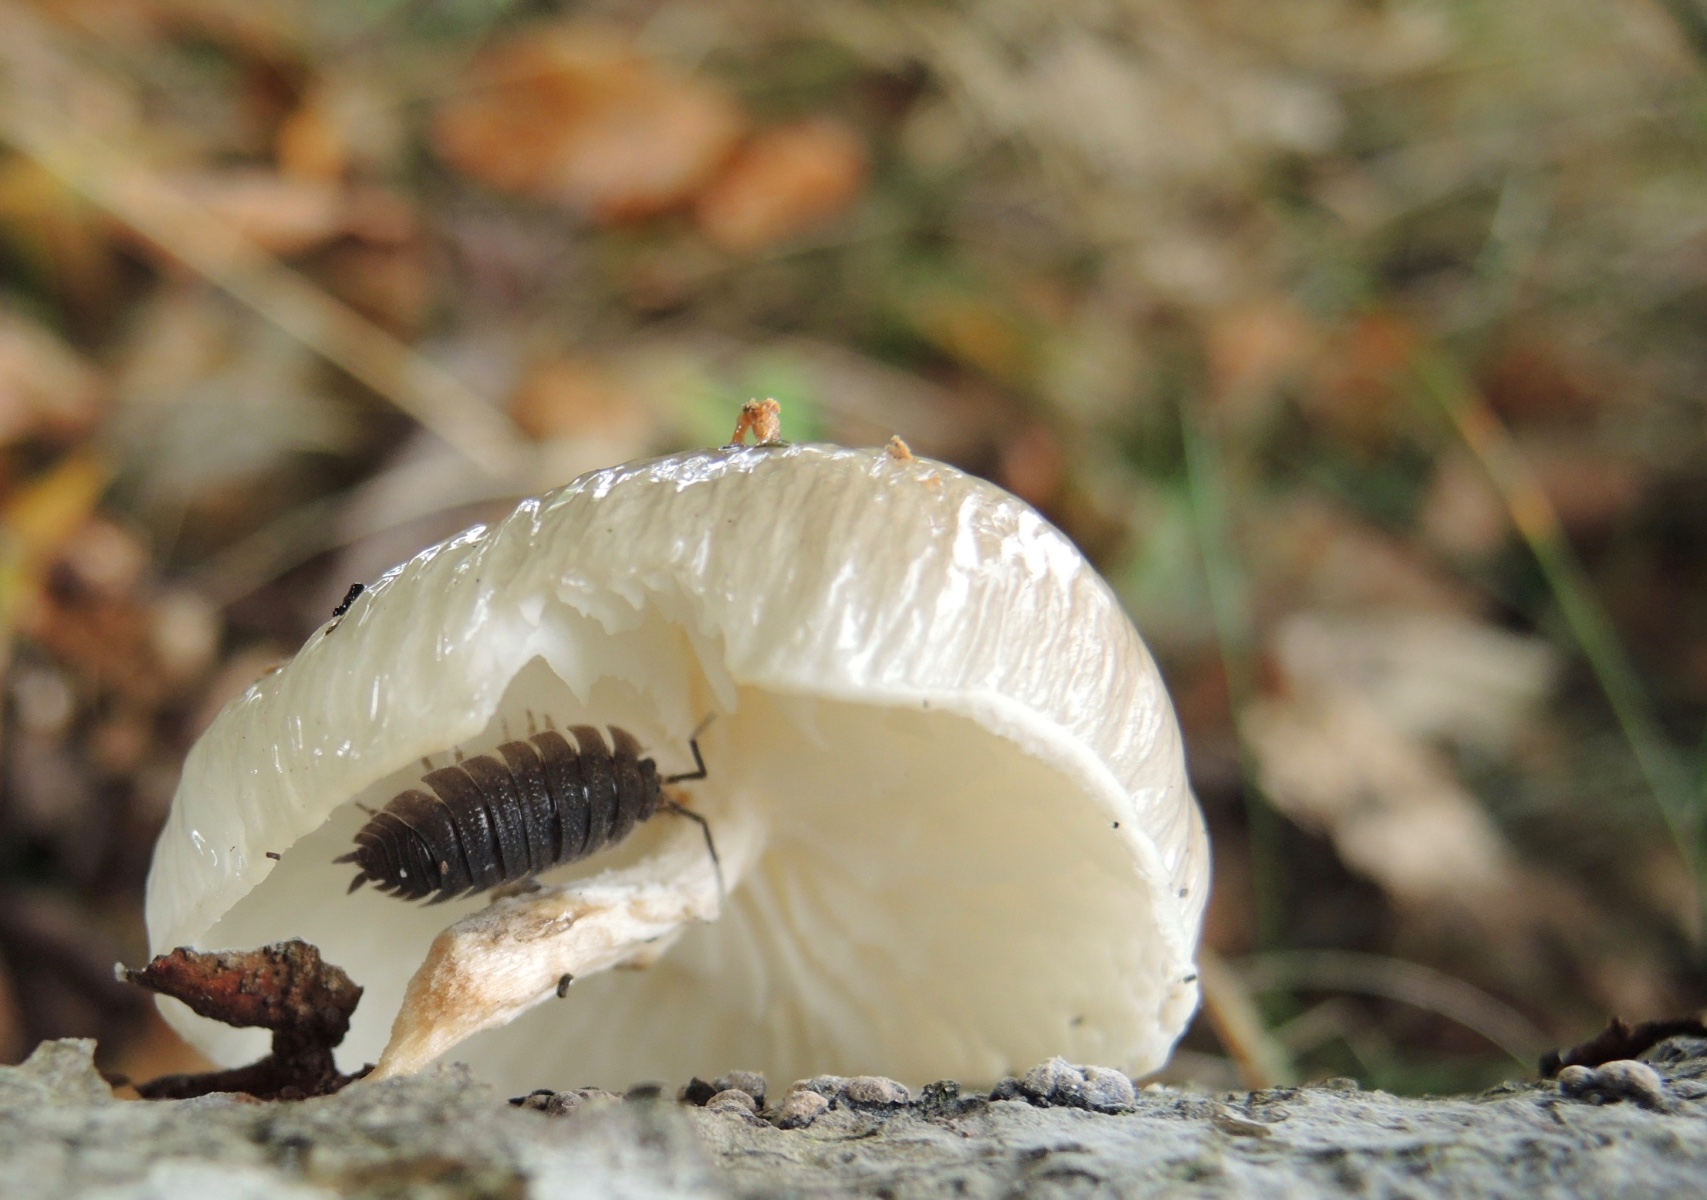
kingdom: Fungi
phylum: Basidiomycota
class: Agaricomycetes
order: Agaricales
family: Physalacriaceae
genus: Mucidula
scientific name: Mucidula mucida
